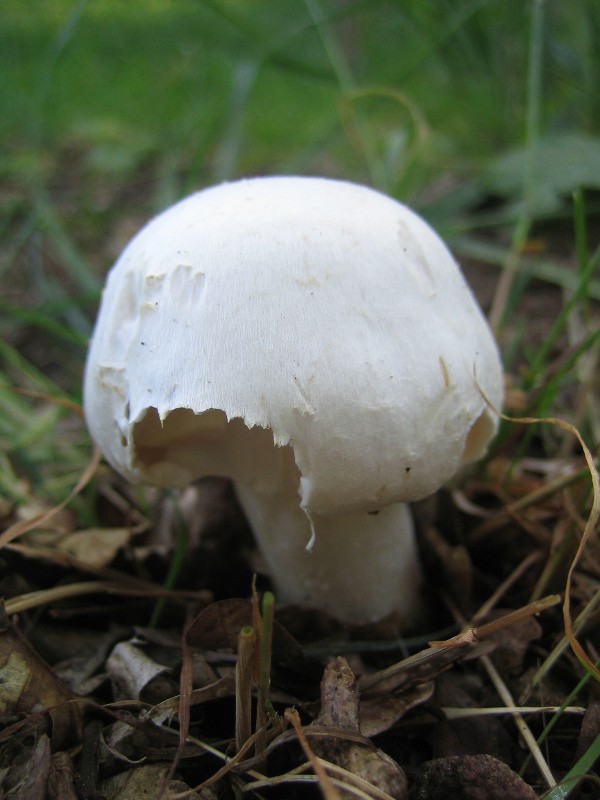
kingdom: Fungi
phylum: Basidiomycota
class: Agaricomycetes
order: Agaricales
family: Agaricaceae
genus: Agaricus
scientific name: Agaricus sylvicola
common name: gulhvid champignon
